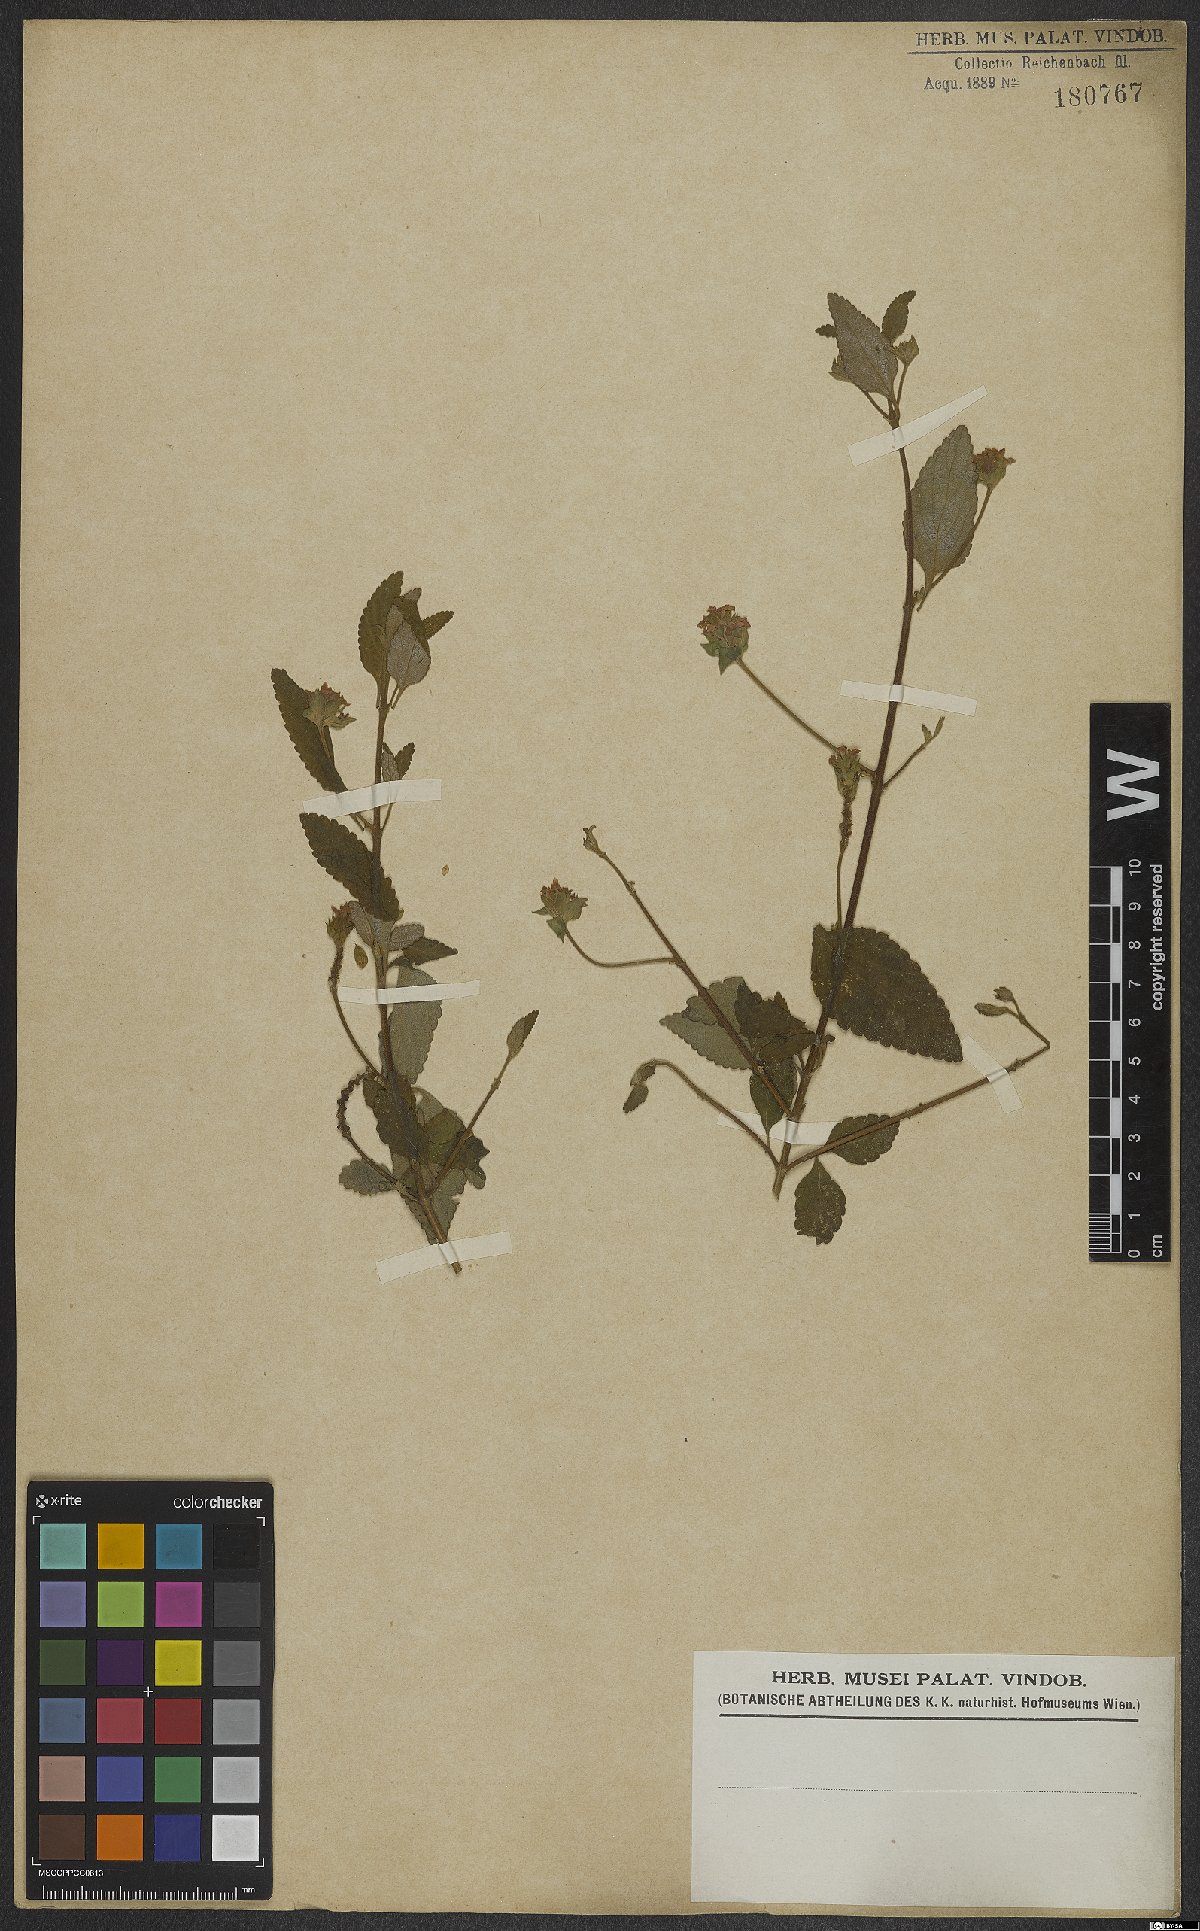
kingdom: Plantae
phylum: Tracheophyta
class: Magnoliopsida
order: Lamiales
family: Verbenaceae
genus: Lantana
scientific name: Lantana fucata
